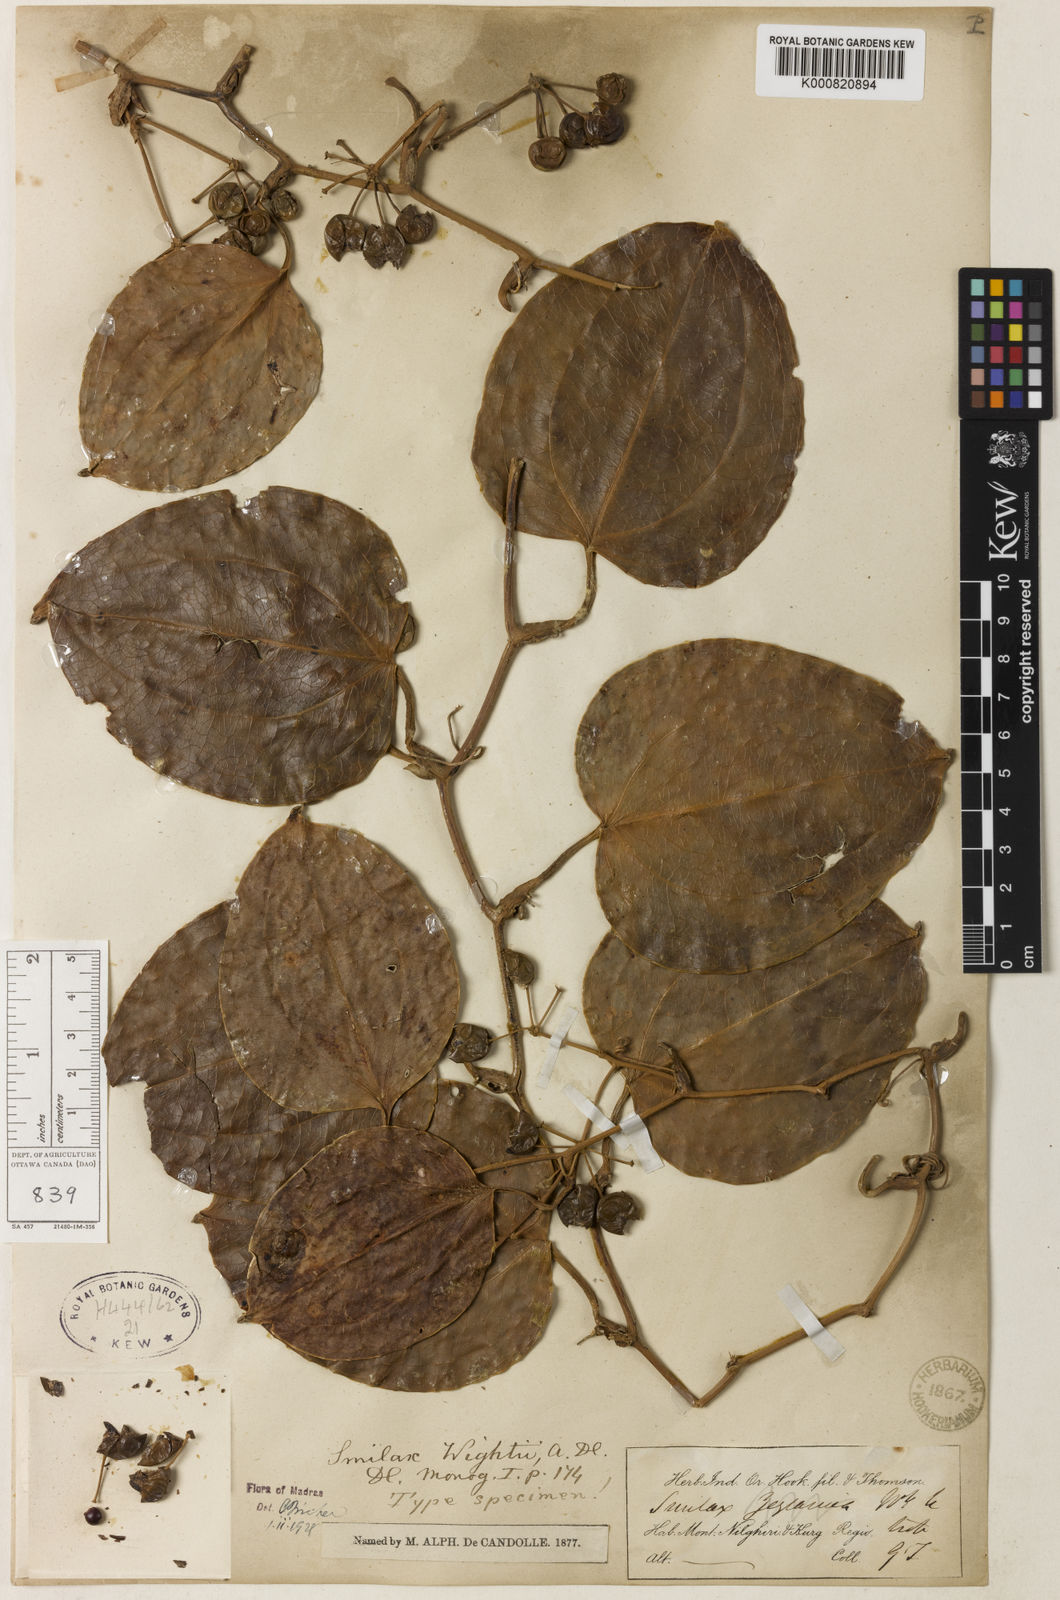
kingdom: Plantae
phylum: Tracheophyta
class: Liliopsida
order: Liliales
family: Smilacaceae
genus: Smilax
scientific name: Smilax wightii
